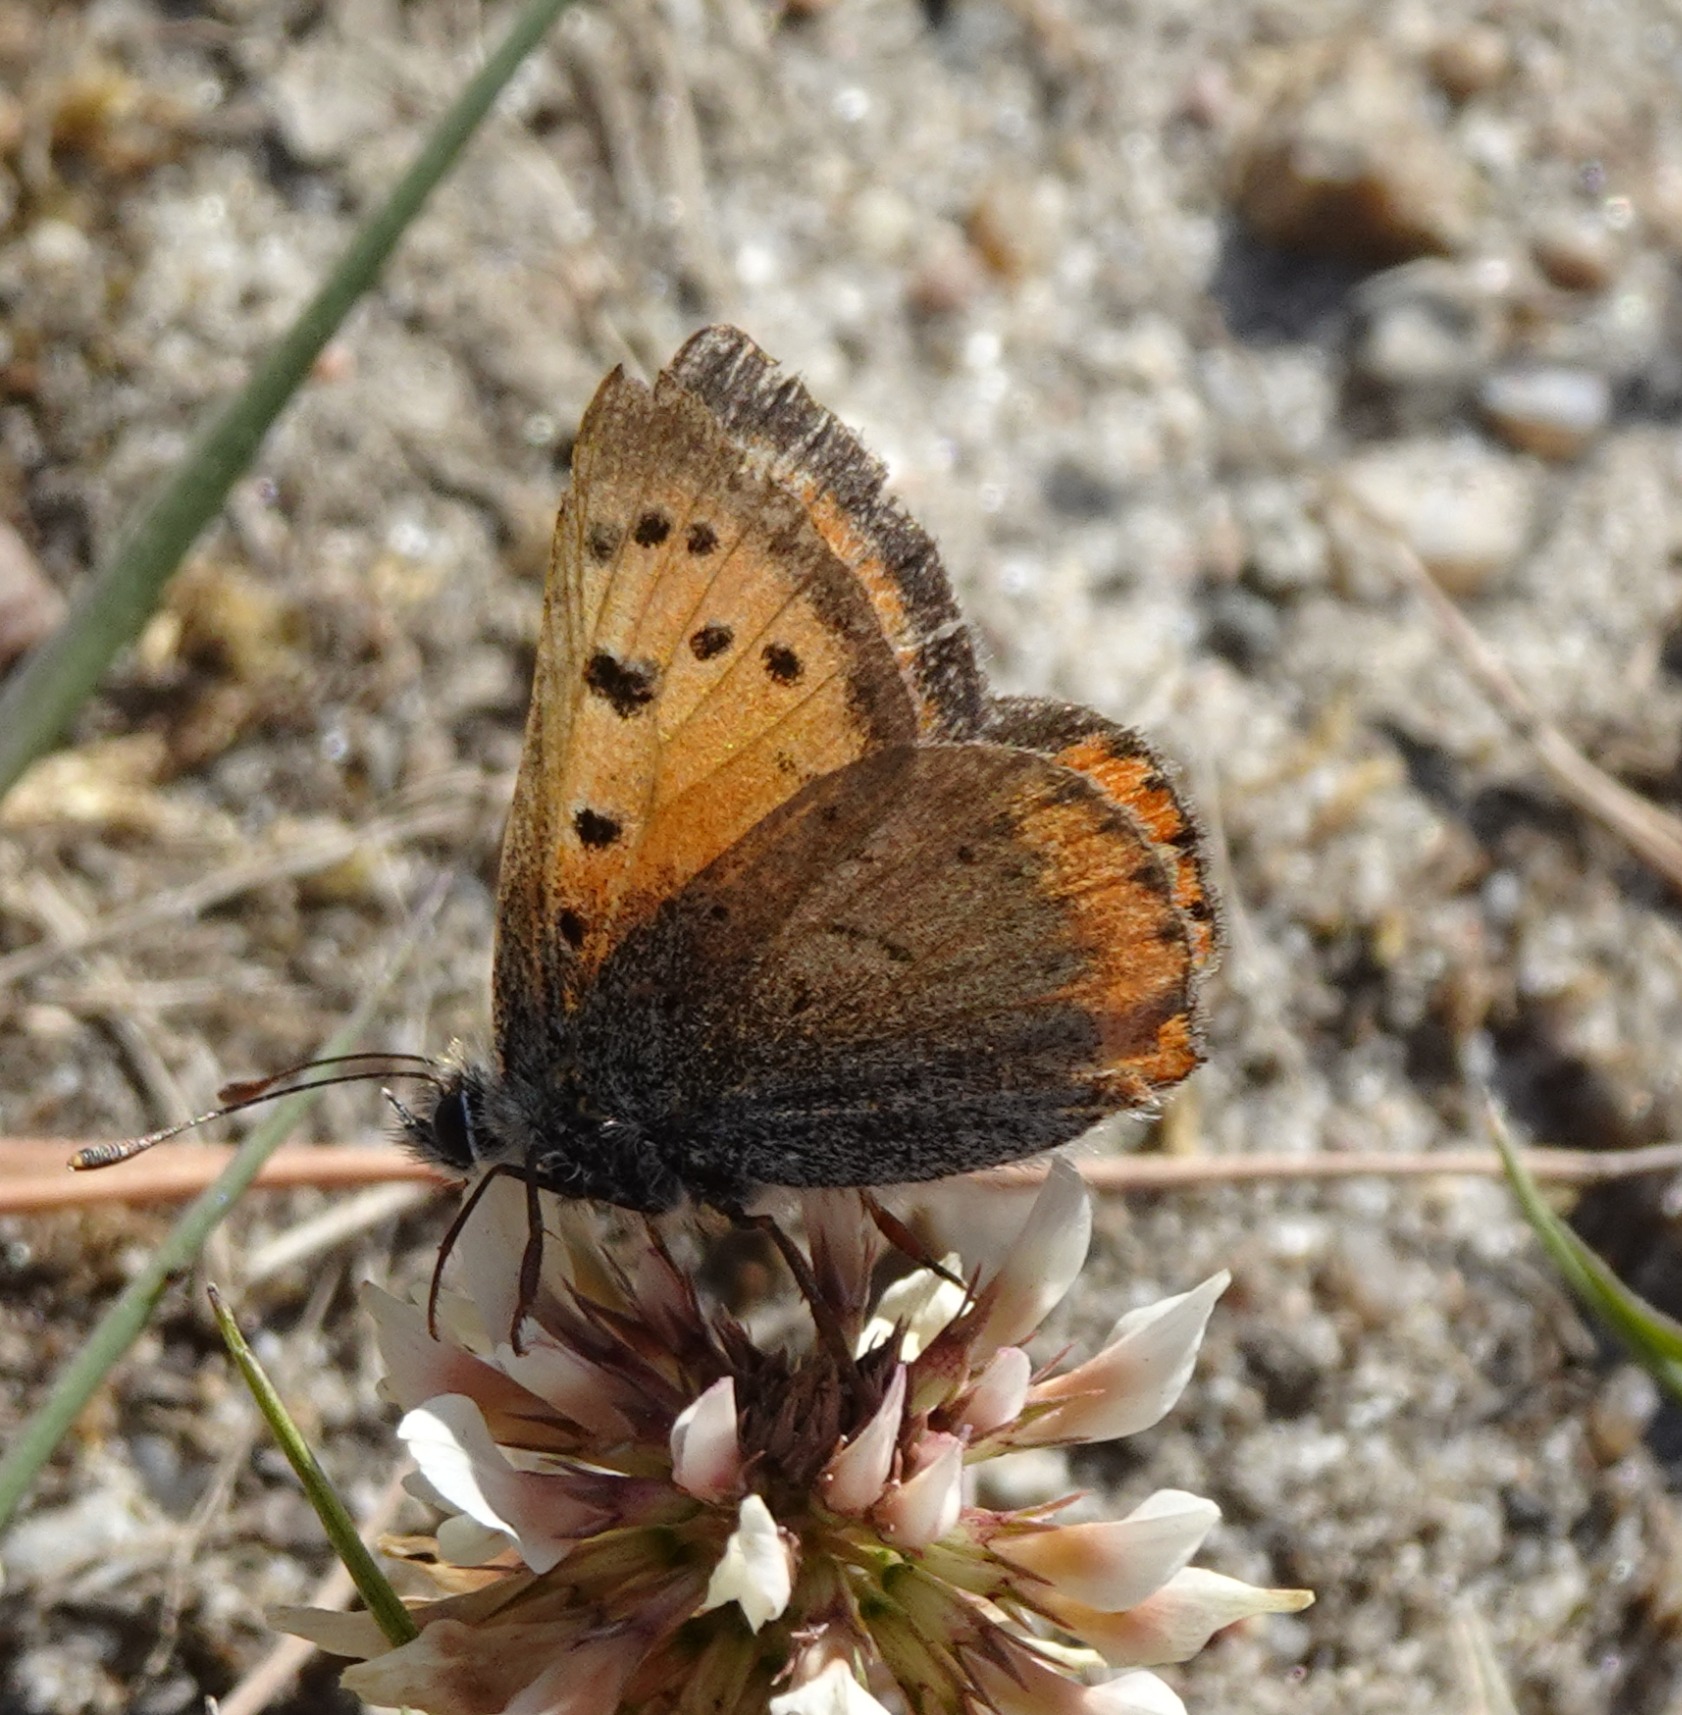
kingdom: Animalia
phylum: Arthropoda
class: Insecta
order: Lepidoptera
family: Lycaenidae
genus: Lycaena
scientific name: Lycaena phlaeas
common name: Lille ildfugl
